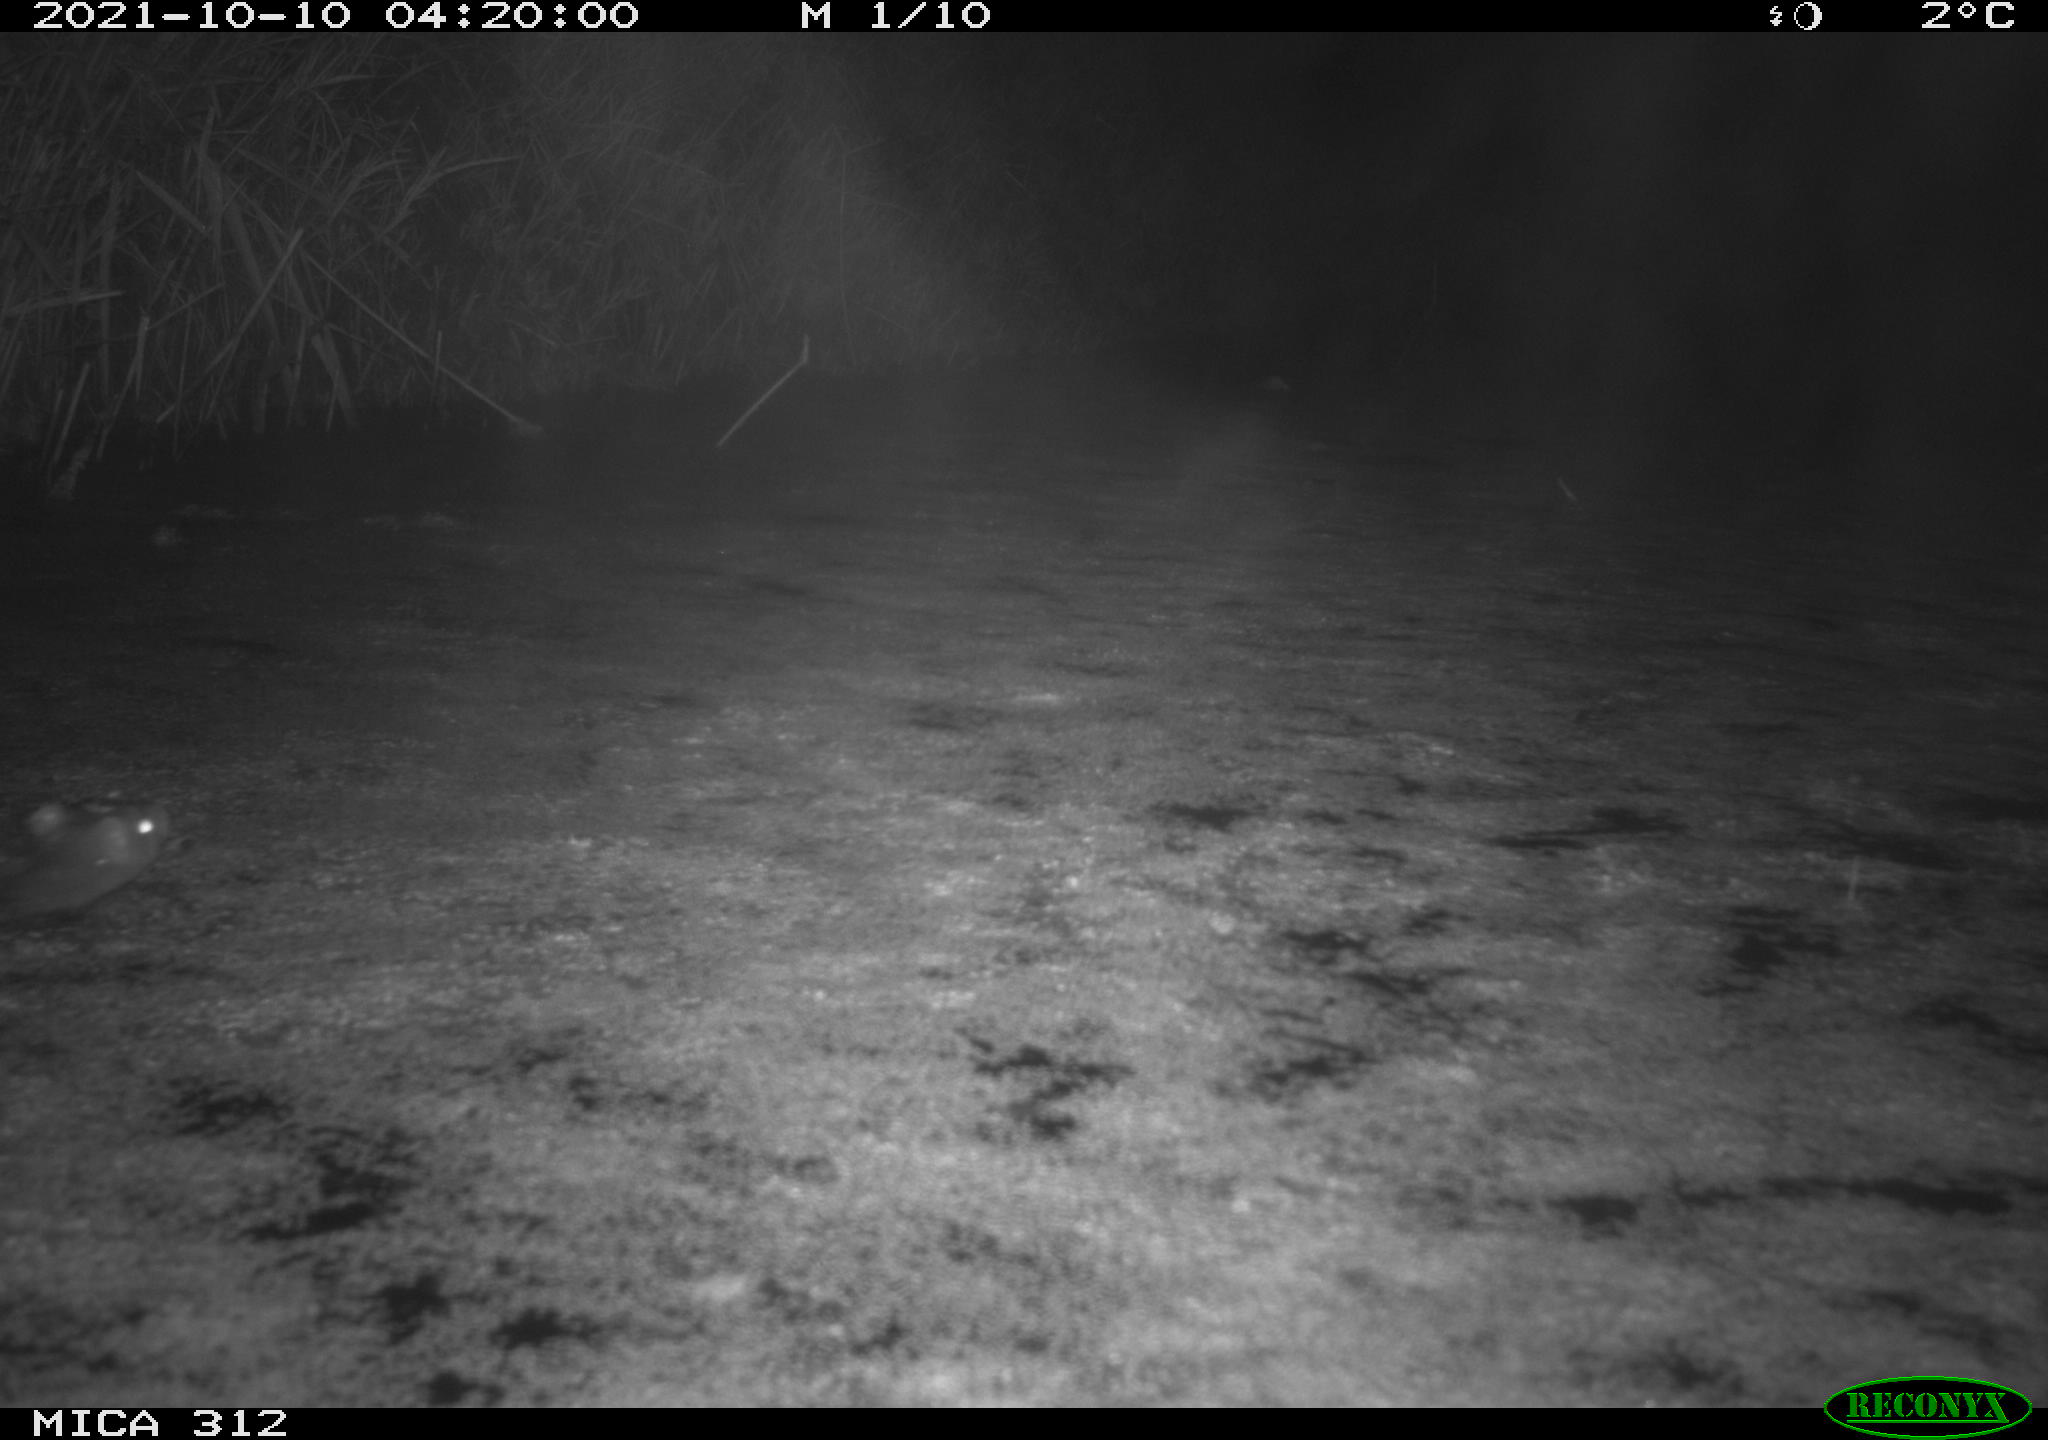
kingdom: Animalia
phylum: Chordata
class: Mammalia
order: Rodentia
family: Muridae
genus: Rattus
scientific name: Rattus norvegicus
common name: Brown rat
